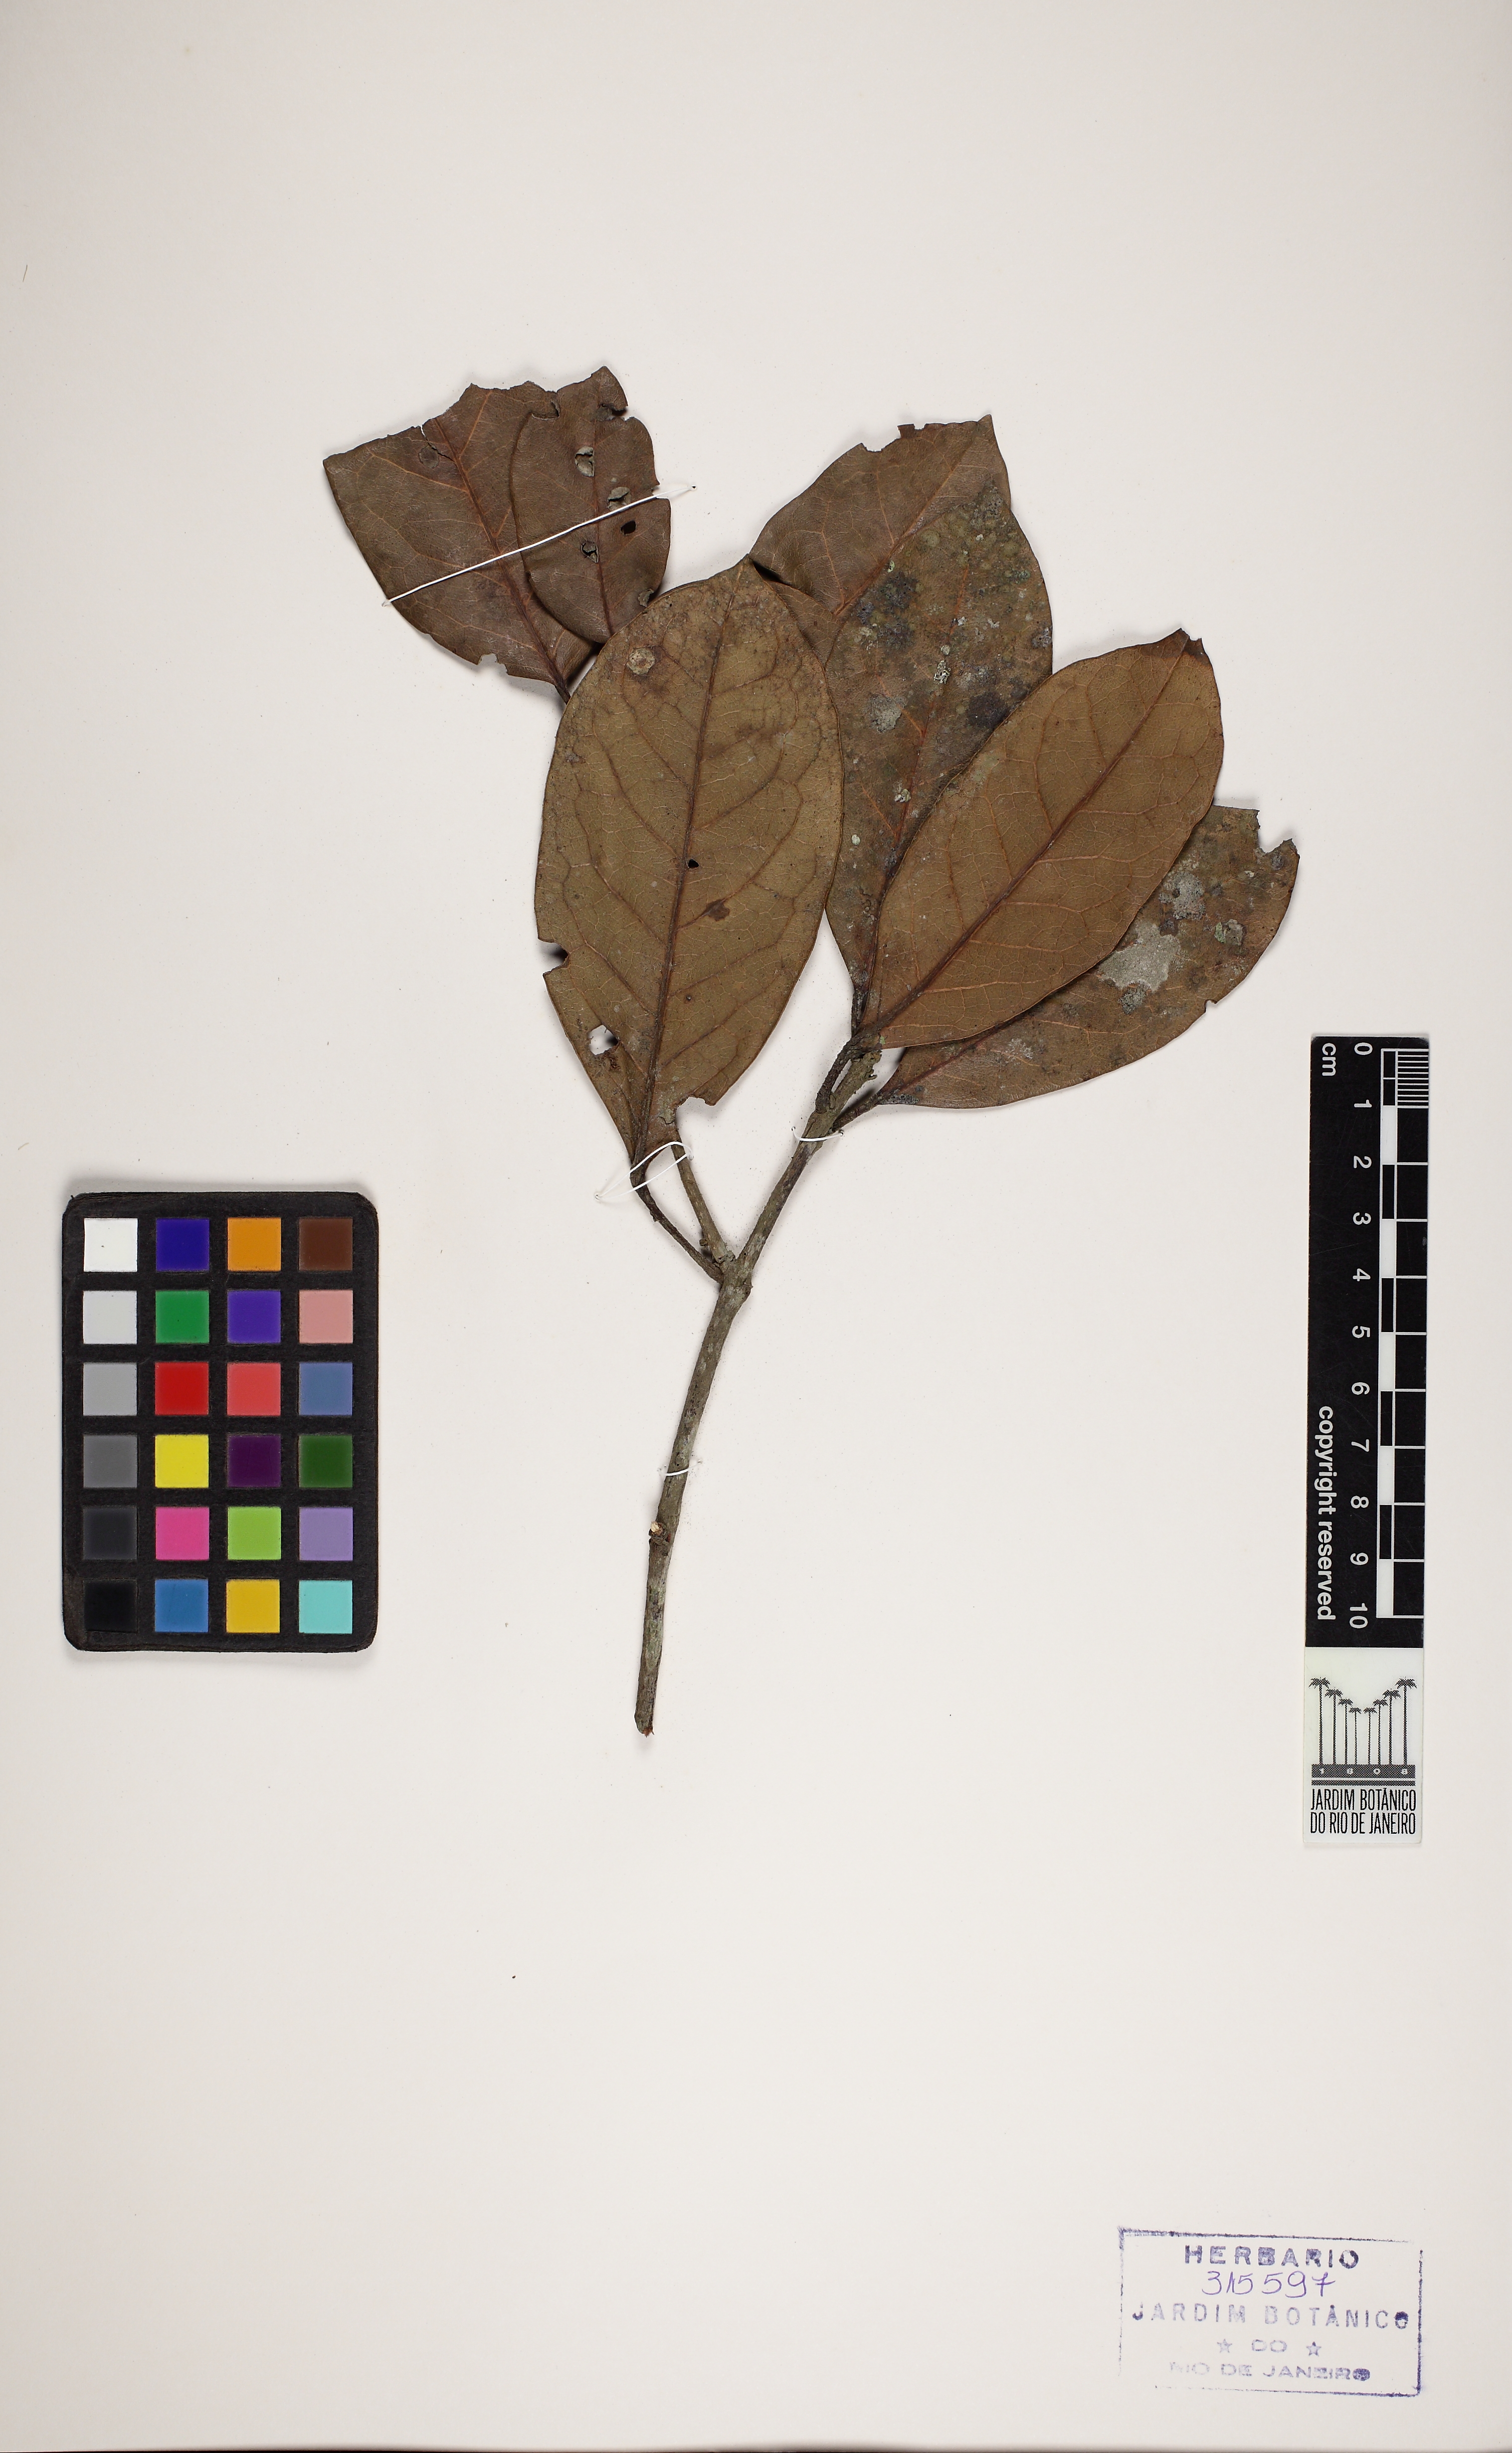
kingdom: Plantae
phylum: Tracheophyta
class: Magnoliopsida
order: Oxalidales
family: Elaeocarpaceae
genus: Sloanea
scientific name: Sloanea
